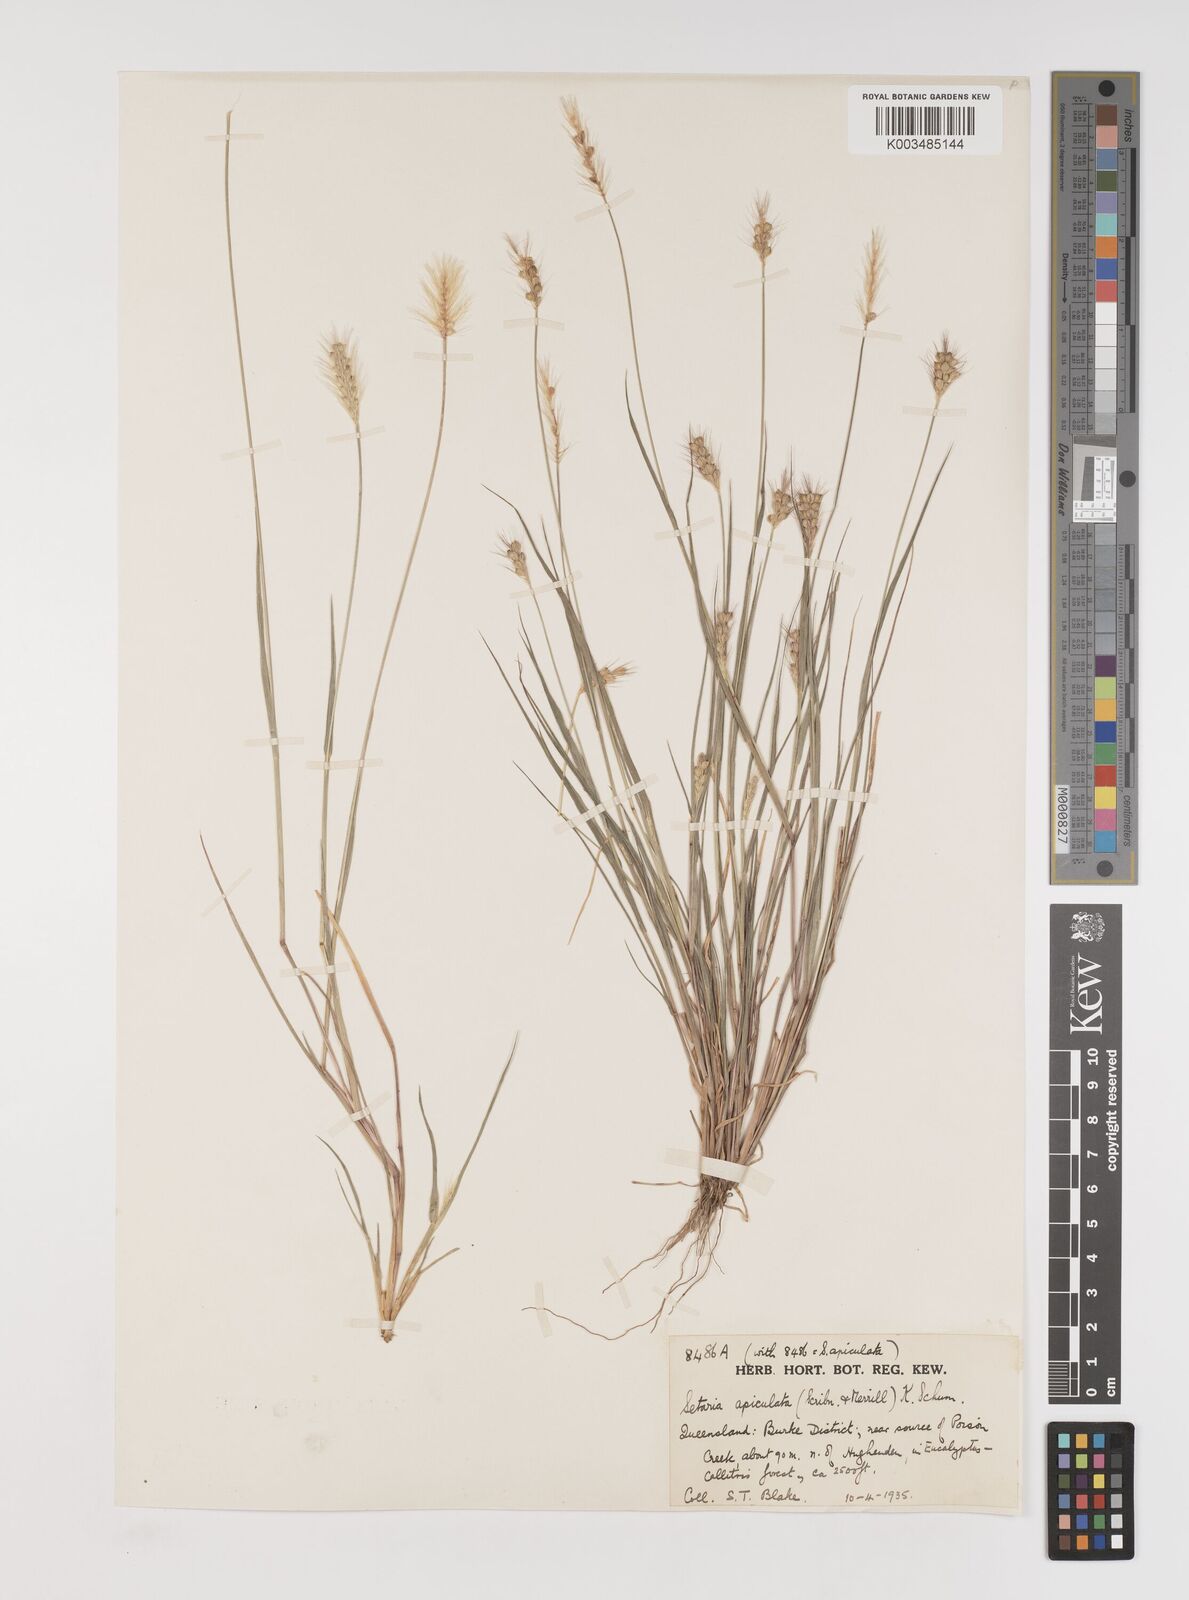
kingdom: Plantae
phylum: Tracheophyta
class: Liliopsida
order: Poales
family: Poaceae
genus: Setaria
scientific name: Setaria apiculata
